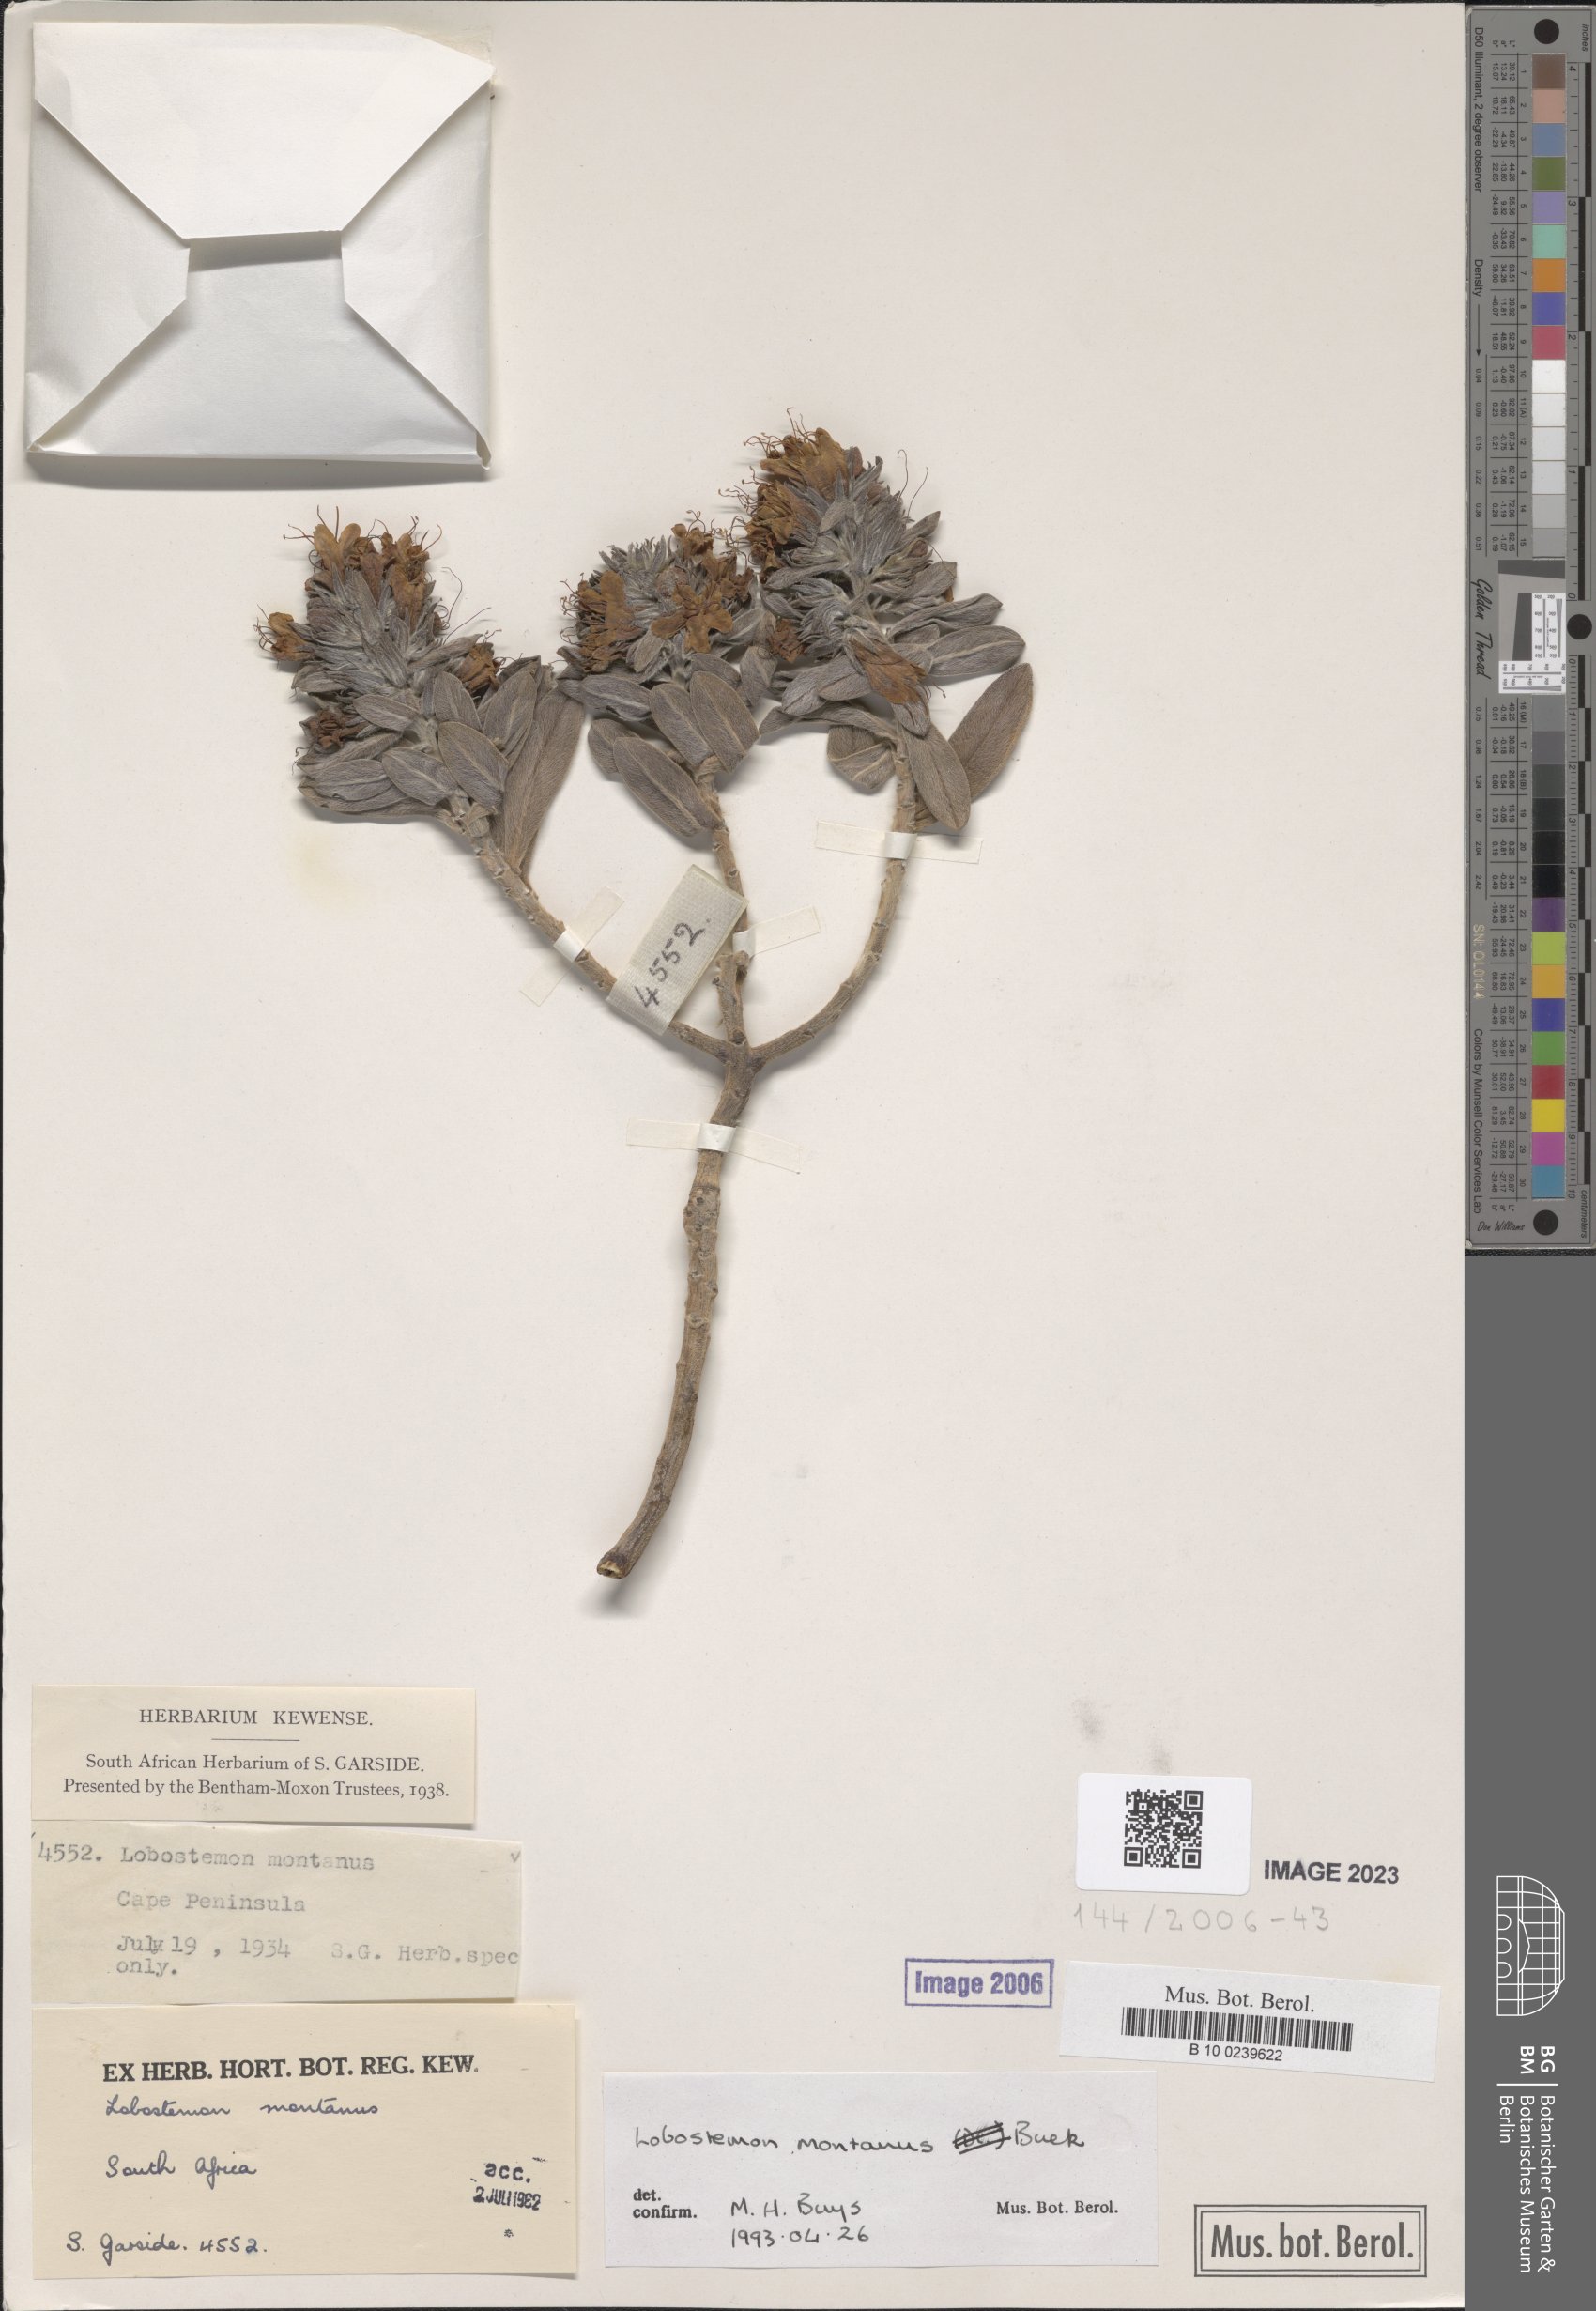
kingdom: Plantae
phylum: Tracheophyta
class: Magnoliopsida
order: Boraginales
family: Boraginaceae
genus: Lobostemon
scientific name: Lobostemon montanus
